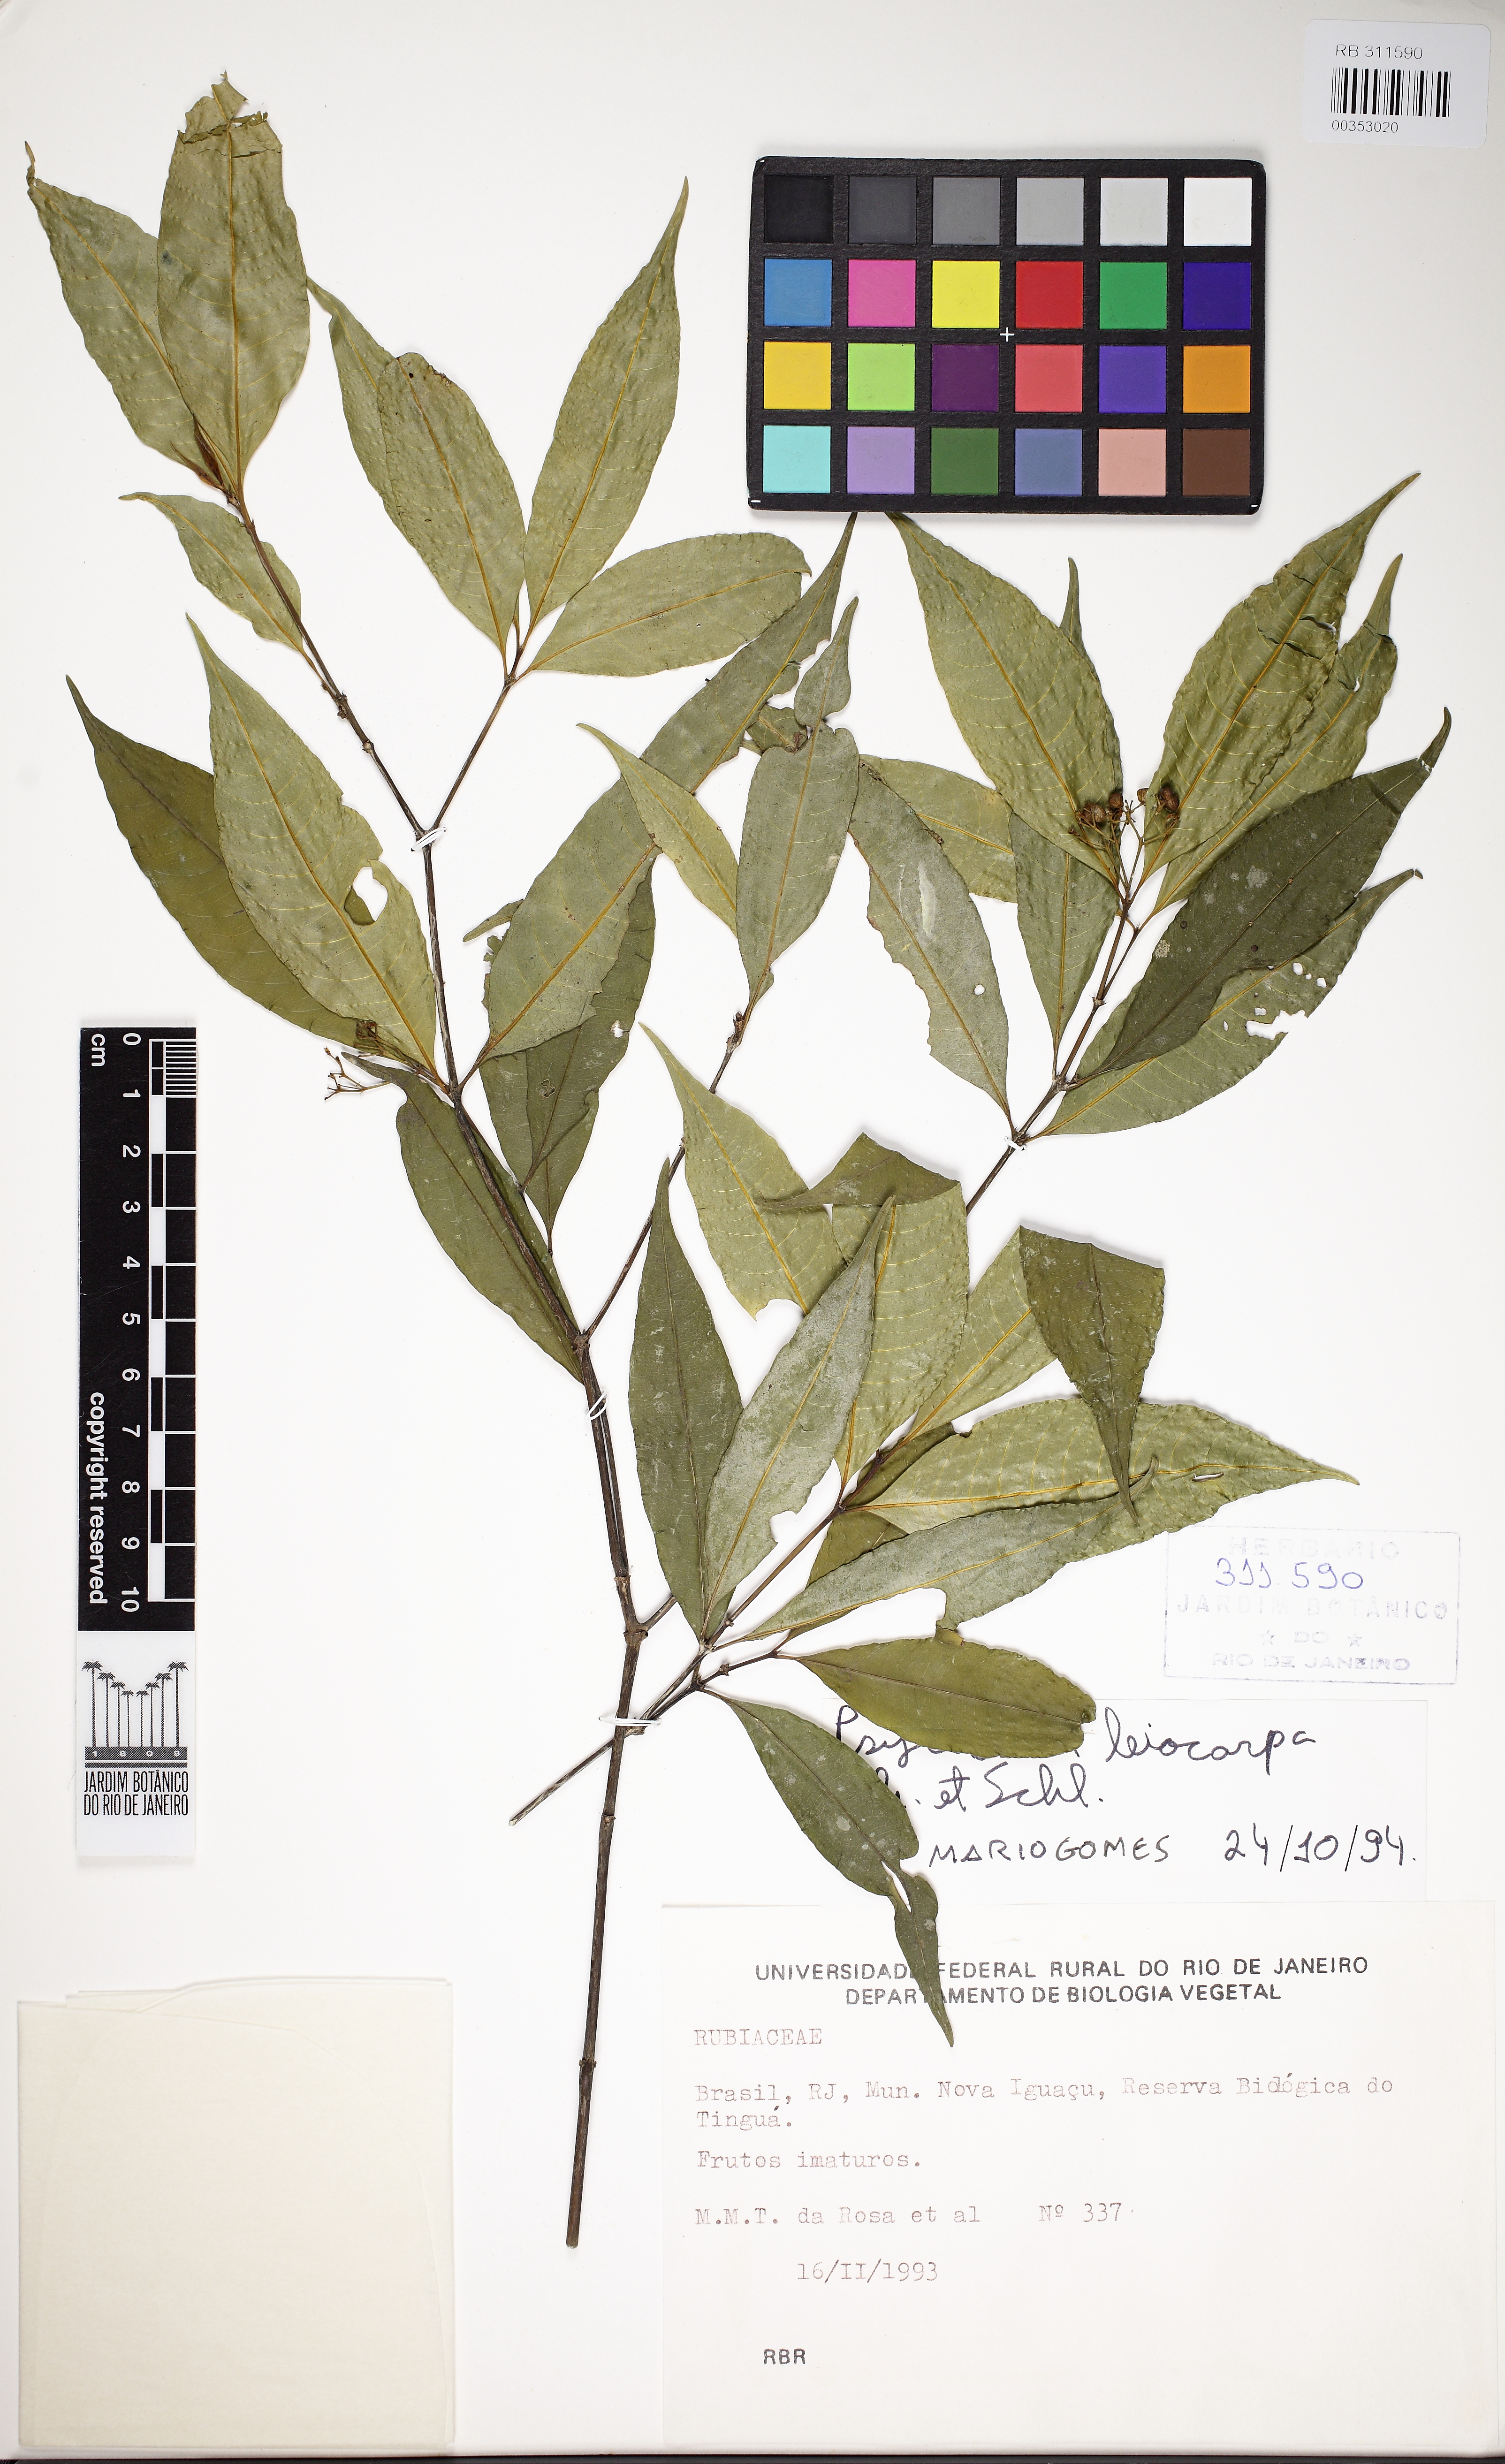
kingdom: Plantae
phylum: Tracheophyta
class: Magnoliopsida
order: Gentianales
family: Rubiaceae
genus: Psychotria
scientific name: Psychotria leiocarpa
